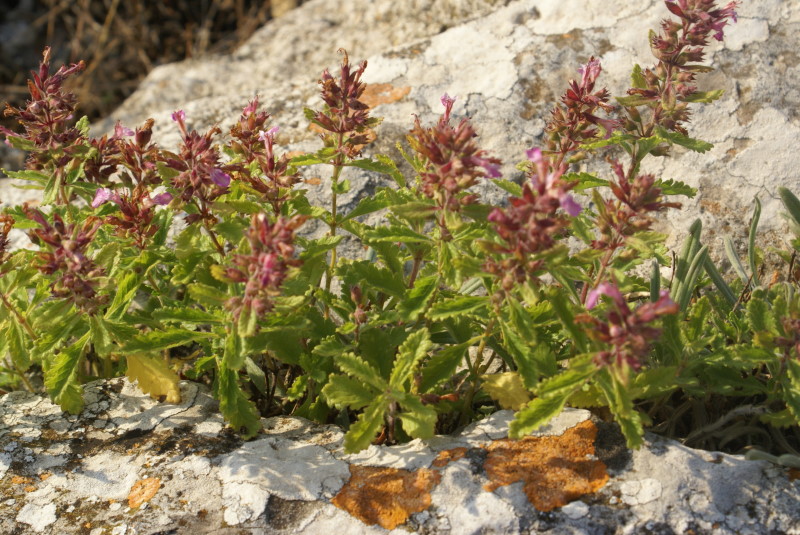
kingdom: Plantae
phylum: Tracheophyta
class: Magnoliopsida
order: Lamiales
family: Lamiaceae
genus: Thymus
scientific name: Thymus
